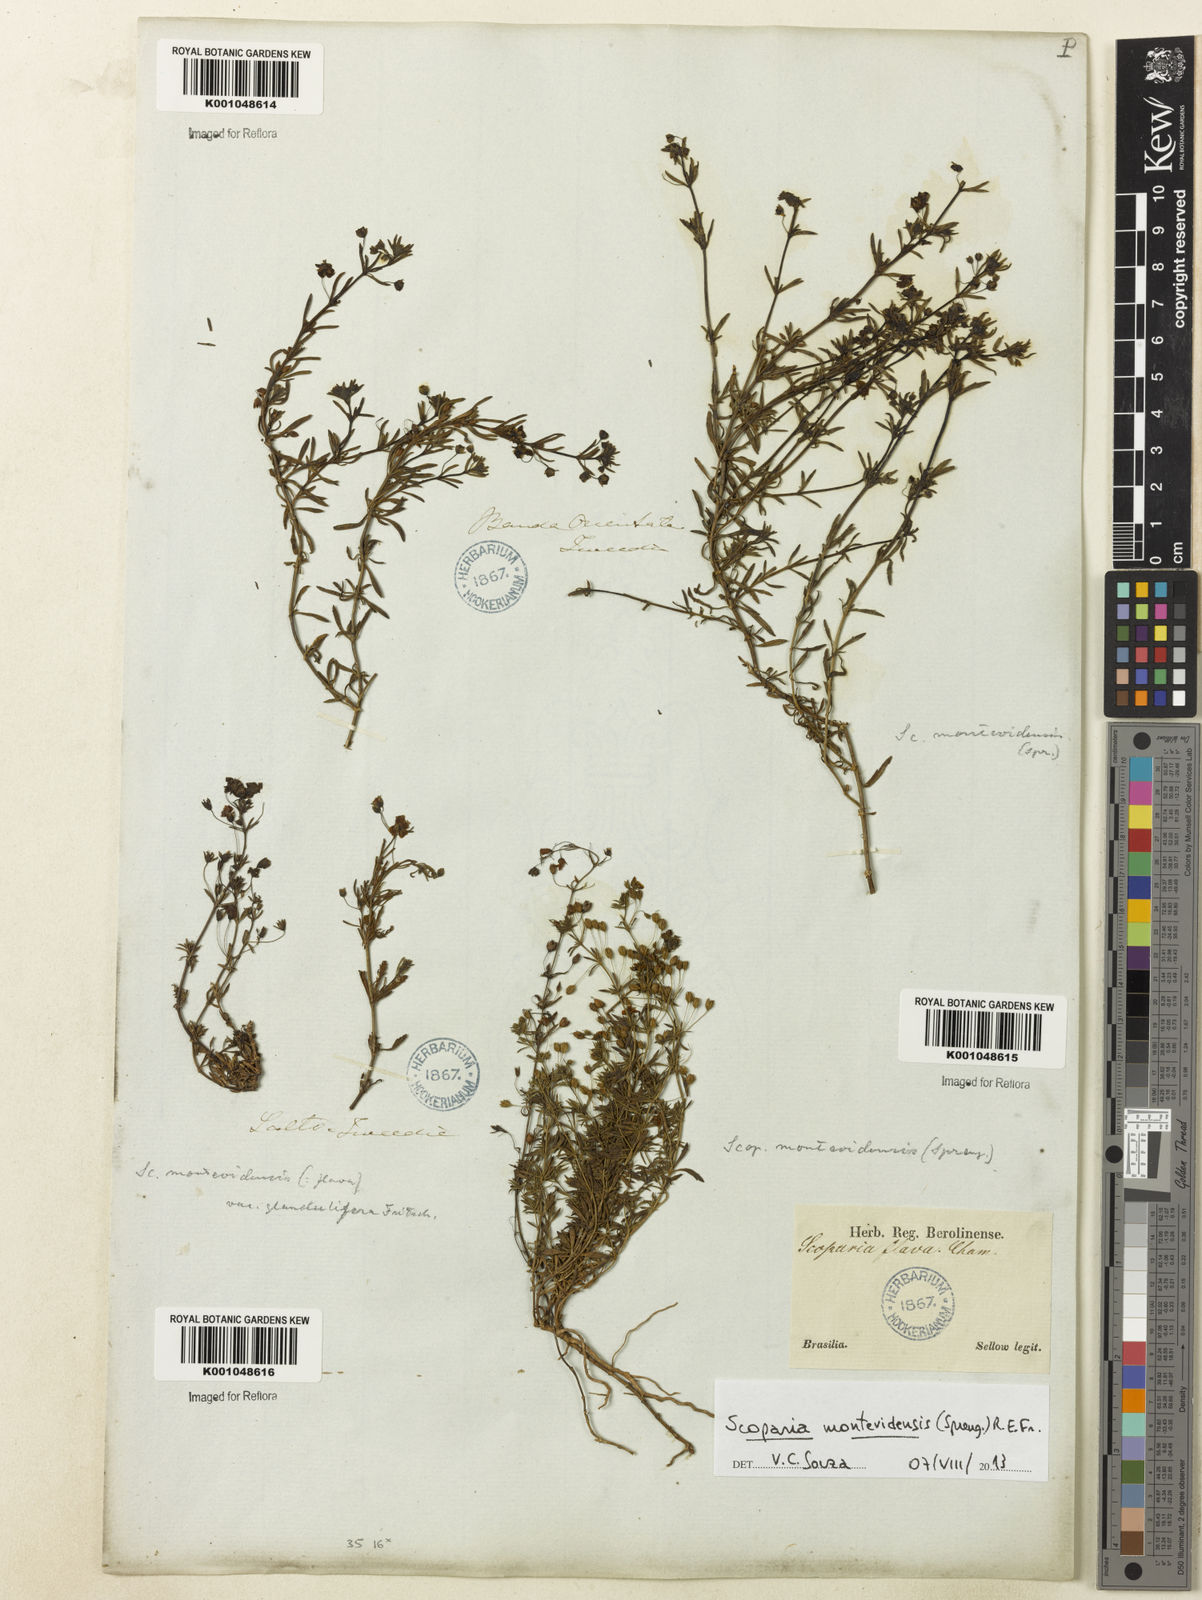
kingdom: Plantae
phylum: Tracheophyta
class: Magnoliopsida
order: Lamiales
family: Plantaginaceae
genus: Scoparia
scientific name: Scoparia montevidensis
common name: Broomwort
